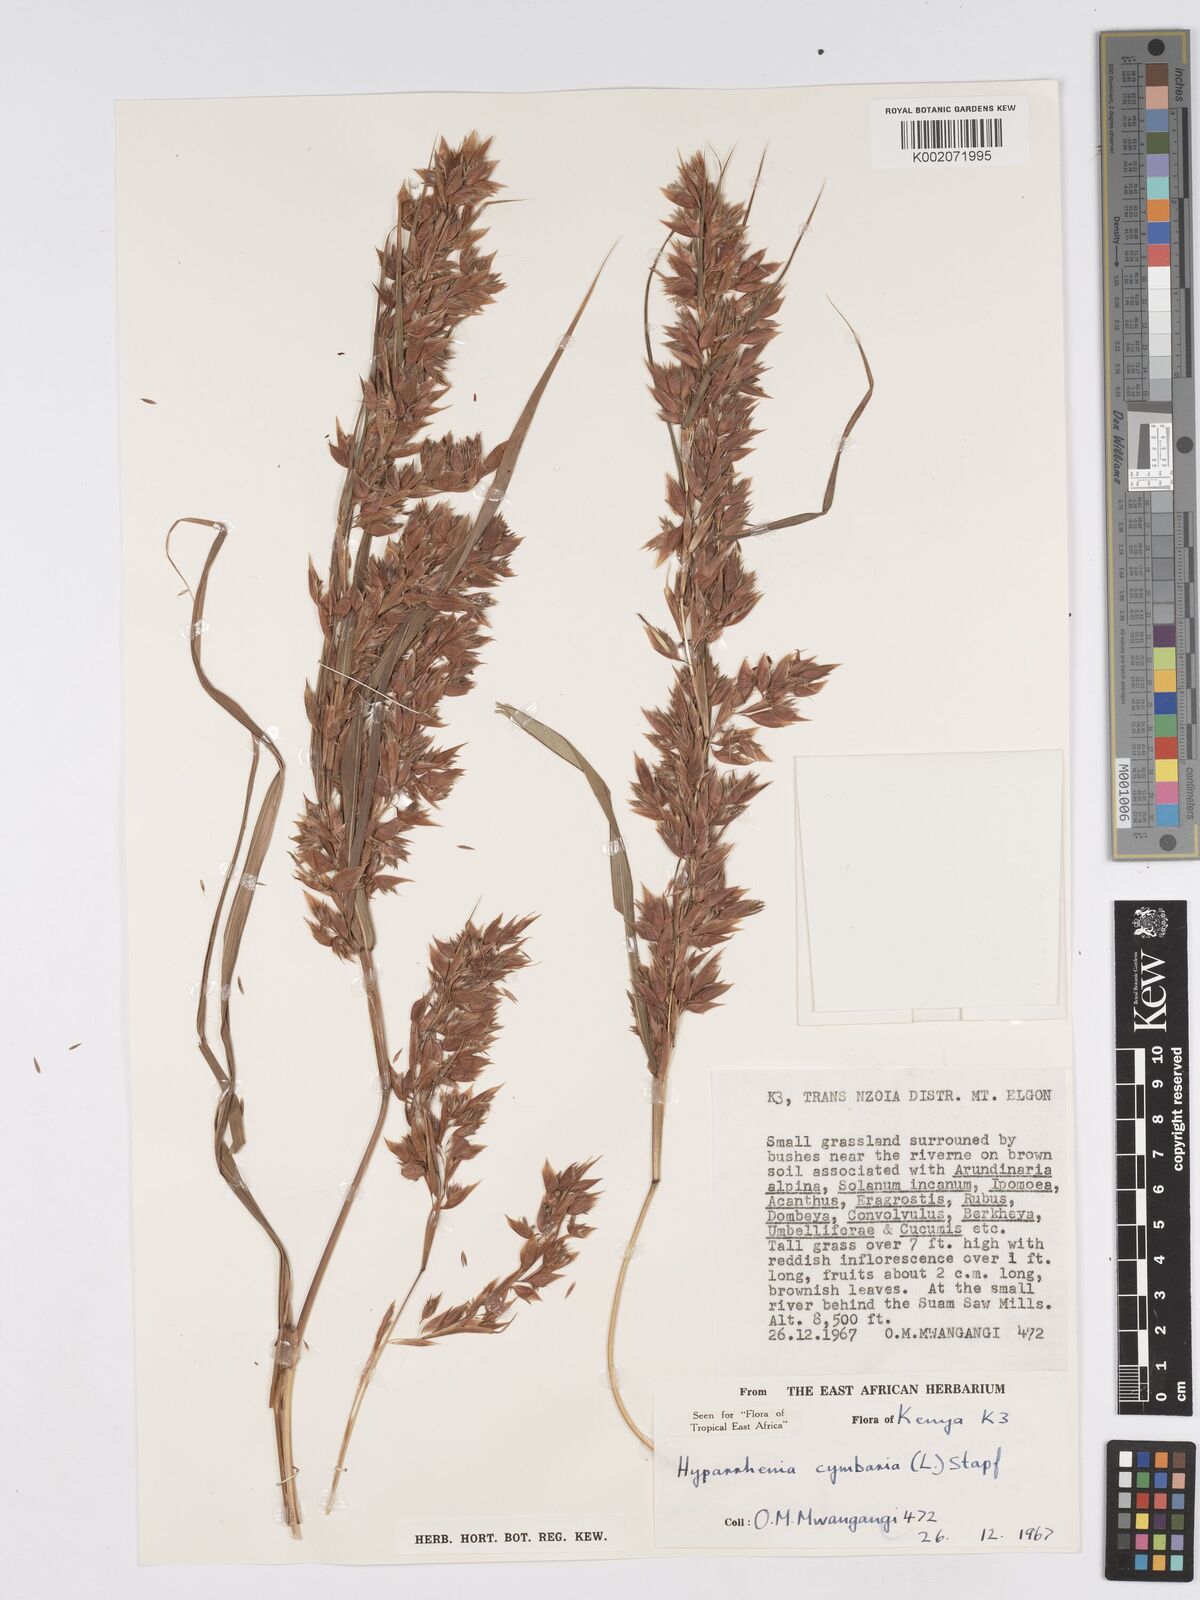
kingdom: Plantae
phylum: Tracheophyta
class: Liliopsida
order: Poales
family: Poaceae
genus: Hyparrhenia
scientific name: Hyparrhenia cymbaria
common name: Boat thatching grass
